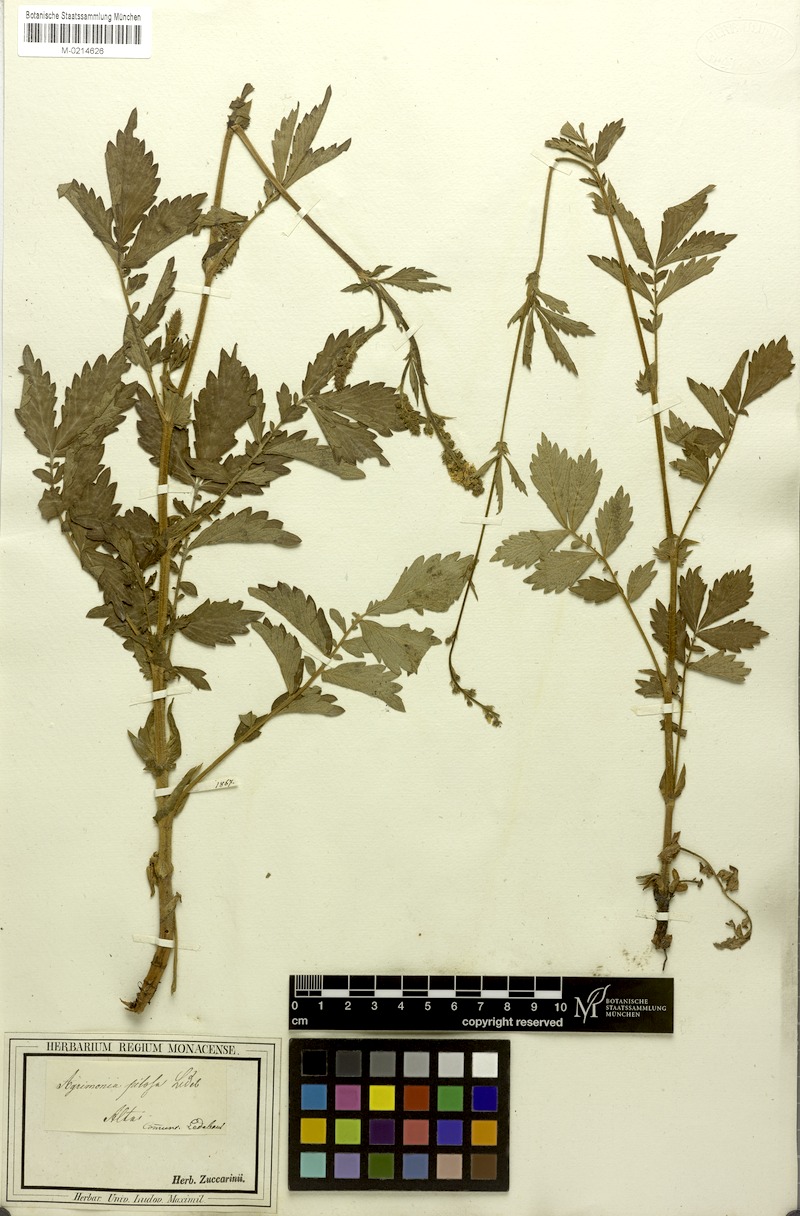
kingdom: Plantae
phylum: Tracheophyta
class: Magnoliopsida
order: Rosales
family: Rosaceae
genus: Agrimonia
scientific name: Agrimonia pilosa
